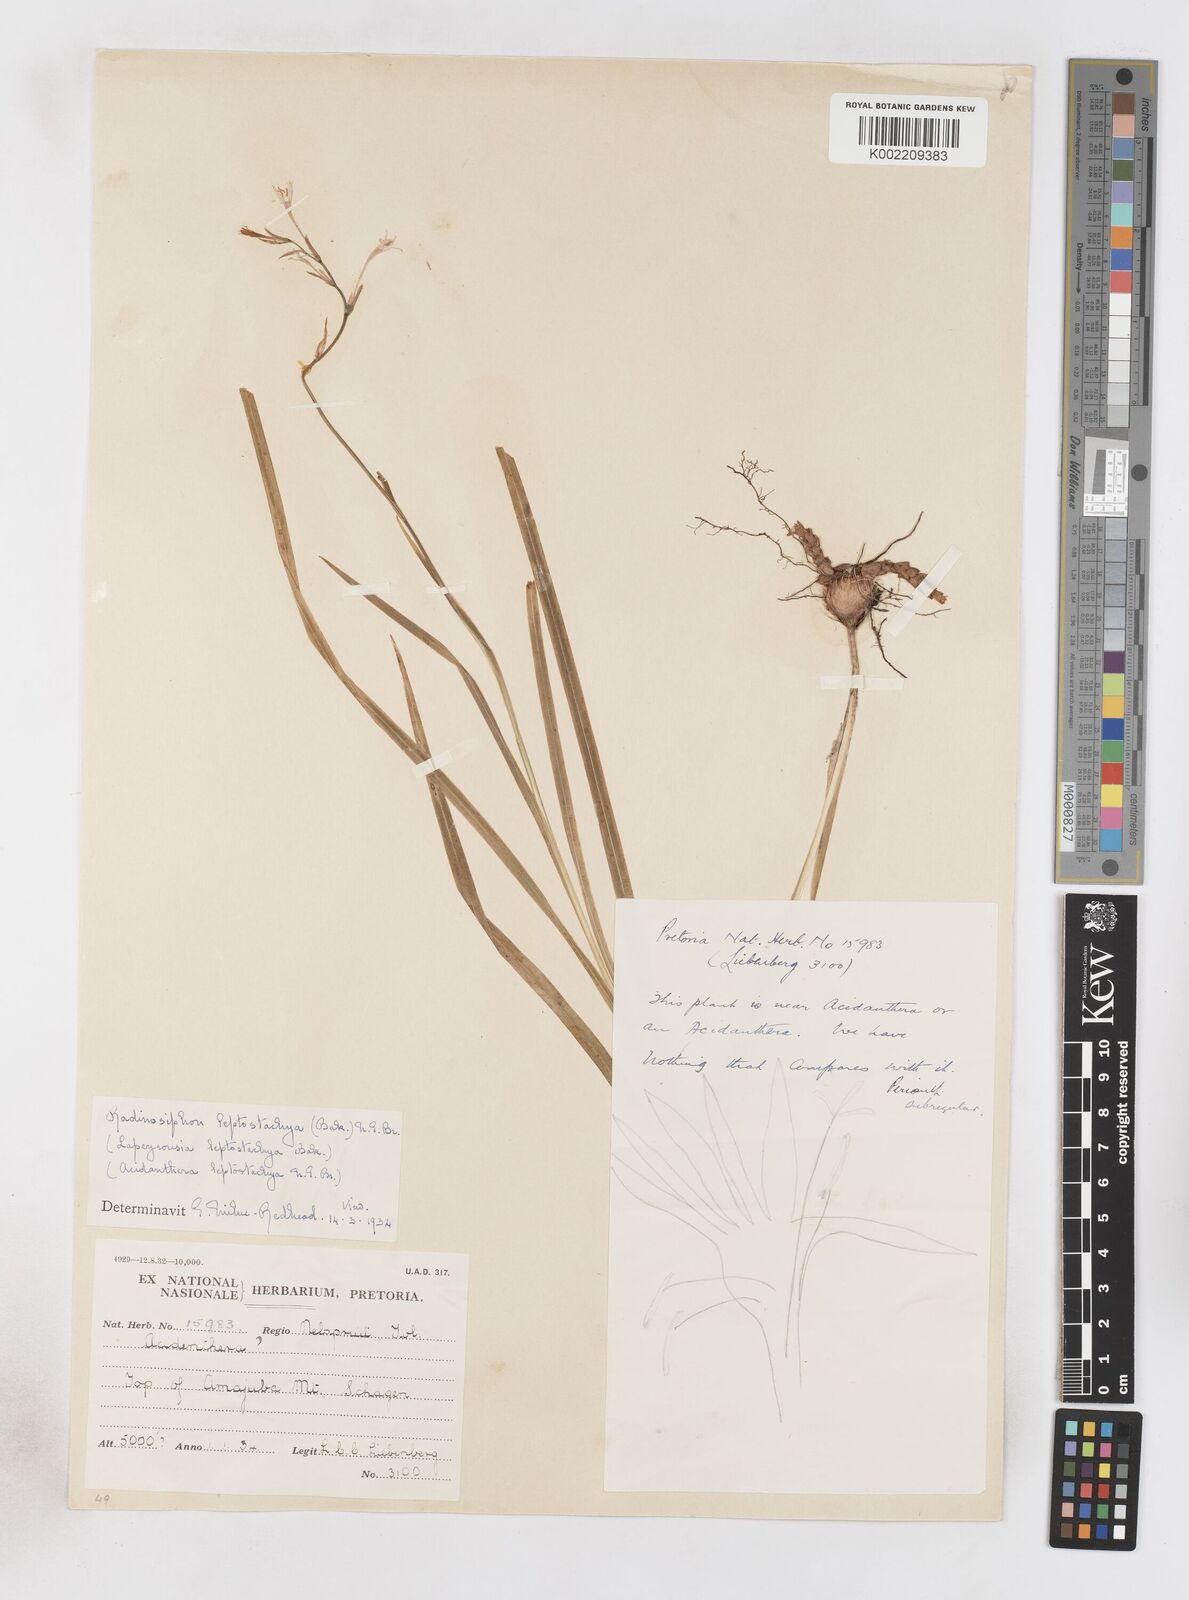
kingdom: Plantae
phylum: Tracheophyta
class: Liliopsida
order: Asparagales
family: Iridaceae
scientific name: Iridaceae
